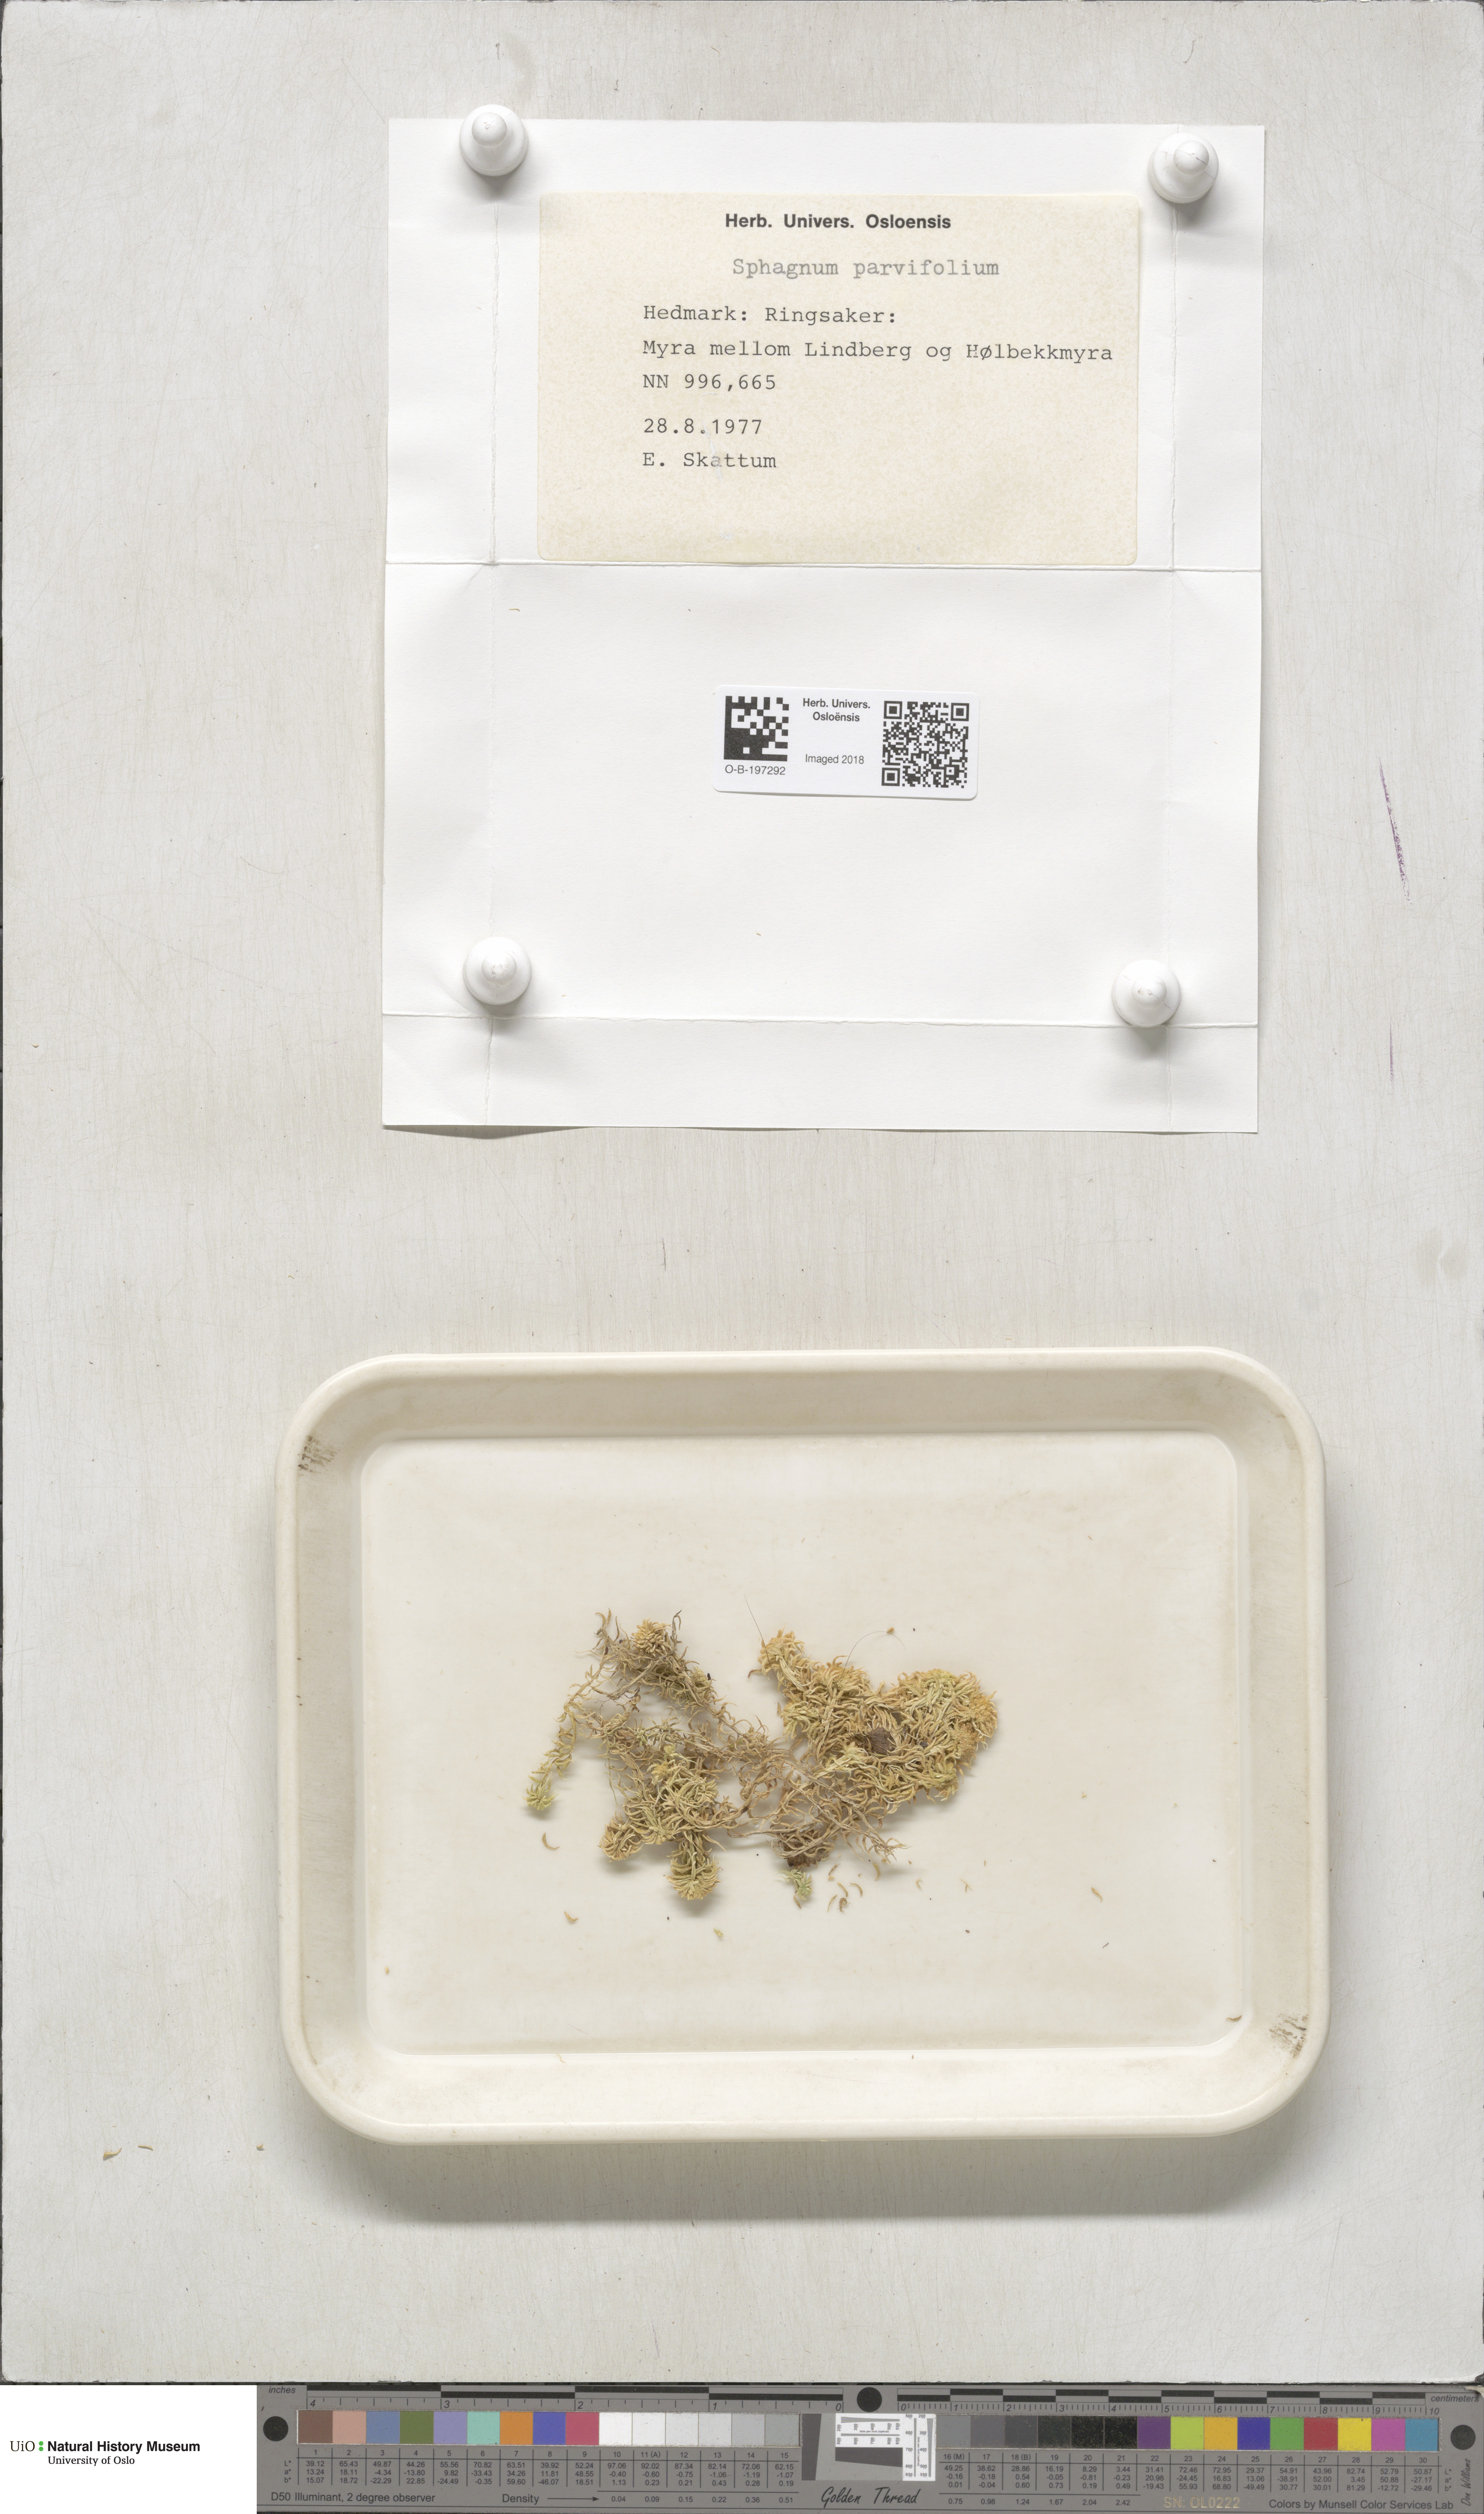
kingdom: Plantae
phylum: Bryophyta
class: Sphagnopsida
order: Sphagnales
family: Sphagnaceae
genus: Sphagnum
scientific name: Sphagnum angustifolium
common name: Narrow-leaved peat moss
